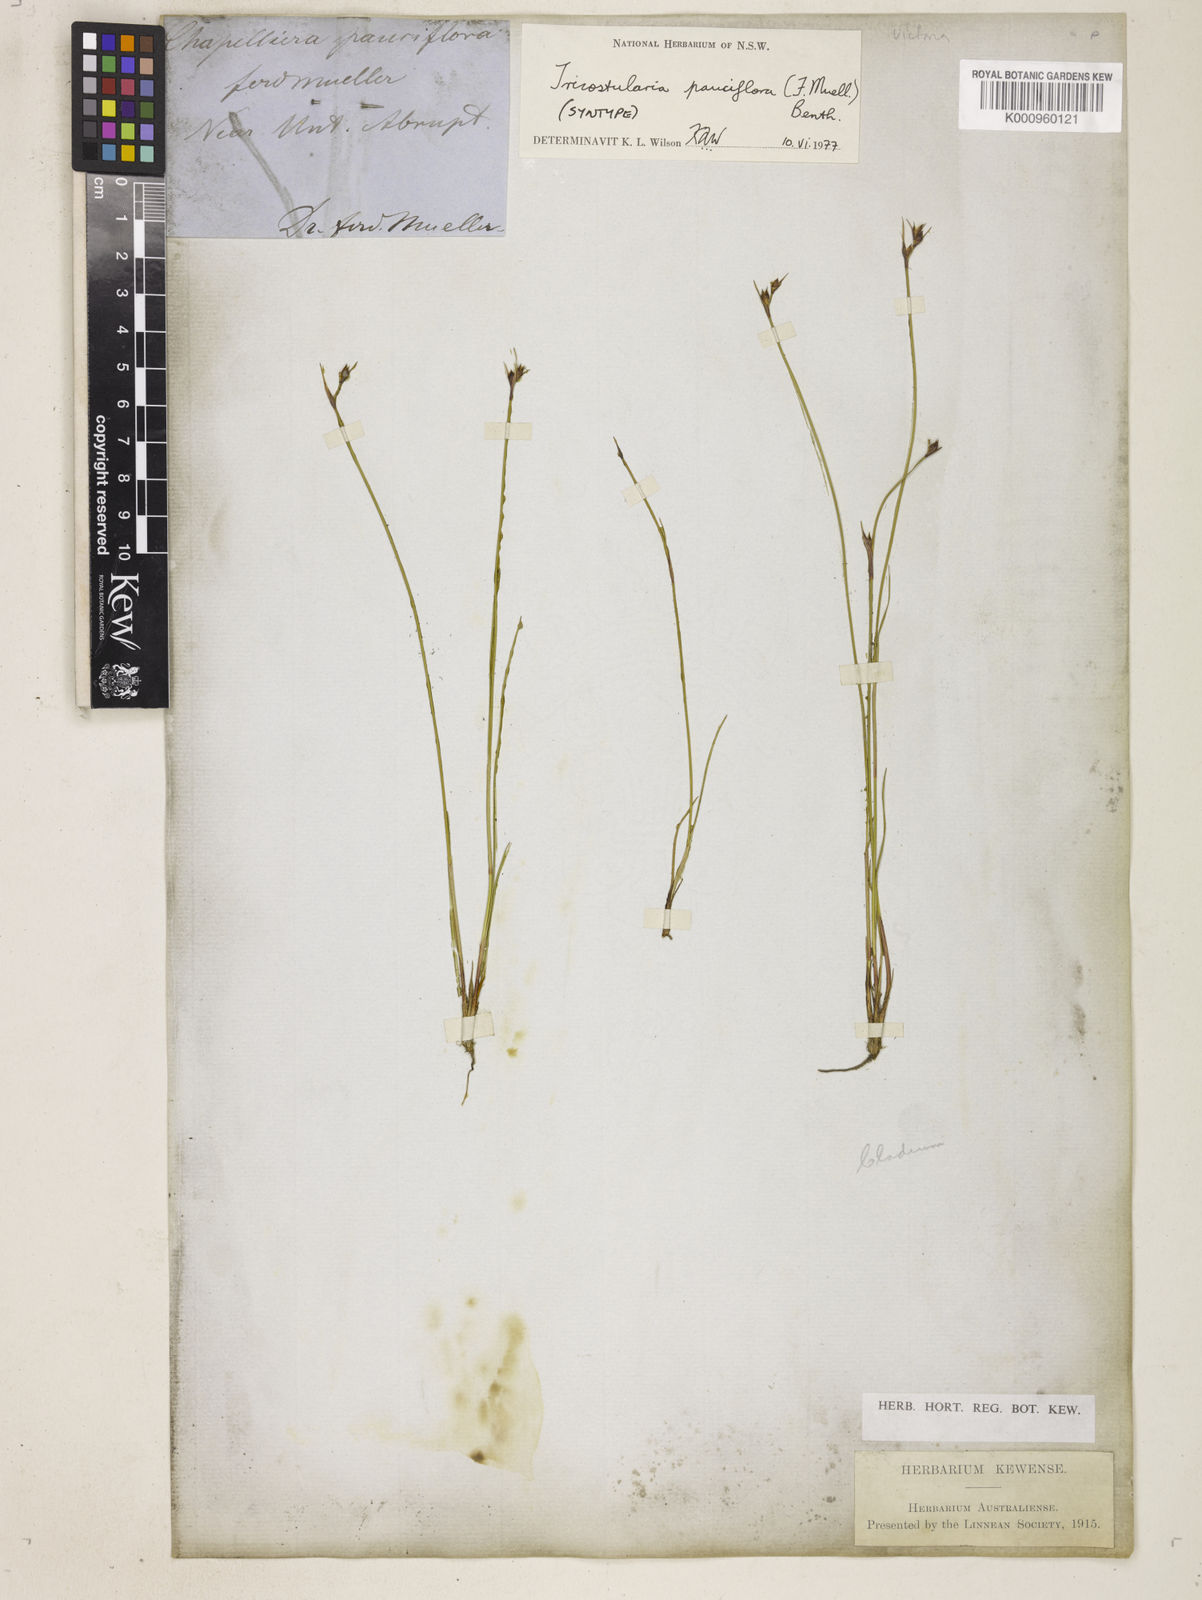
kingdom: Plantae
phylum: Tracheophyta
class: Liliopsida
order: Poales
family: Cyperaceae
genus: Tricostularia
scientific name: Tricostularia pauciflora
